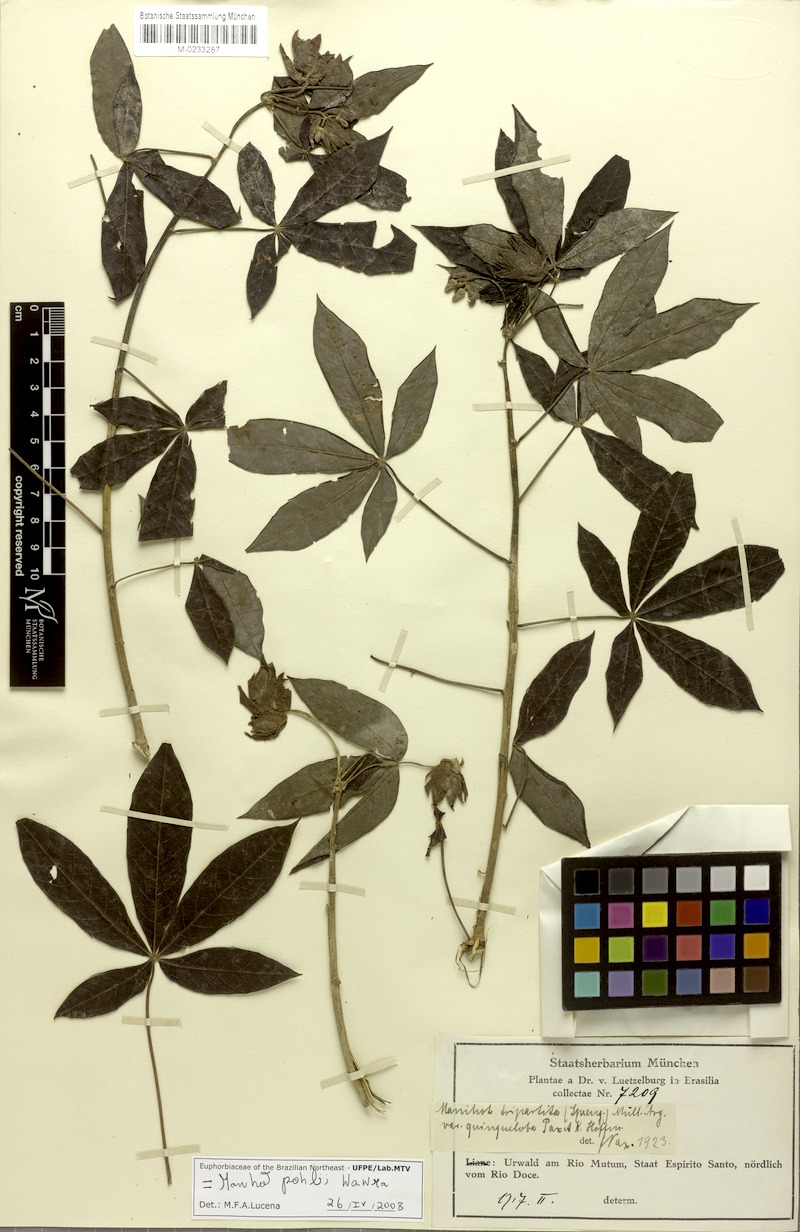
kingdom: Plantae
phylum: Tracheophyta
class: Magnoliopsida
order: Malpighiales
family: Euphorbiaceae
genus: Manihot
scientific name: Manihot pohlii
